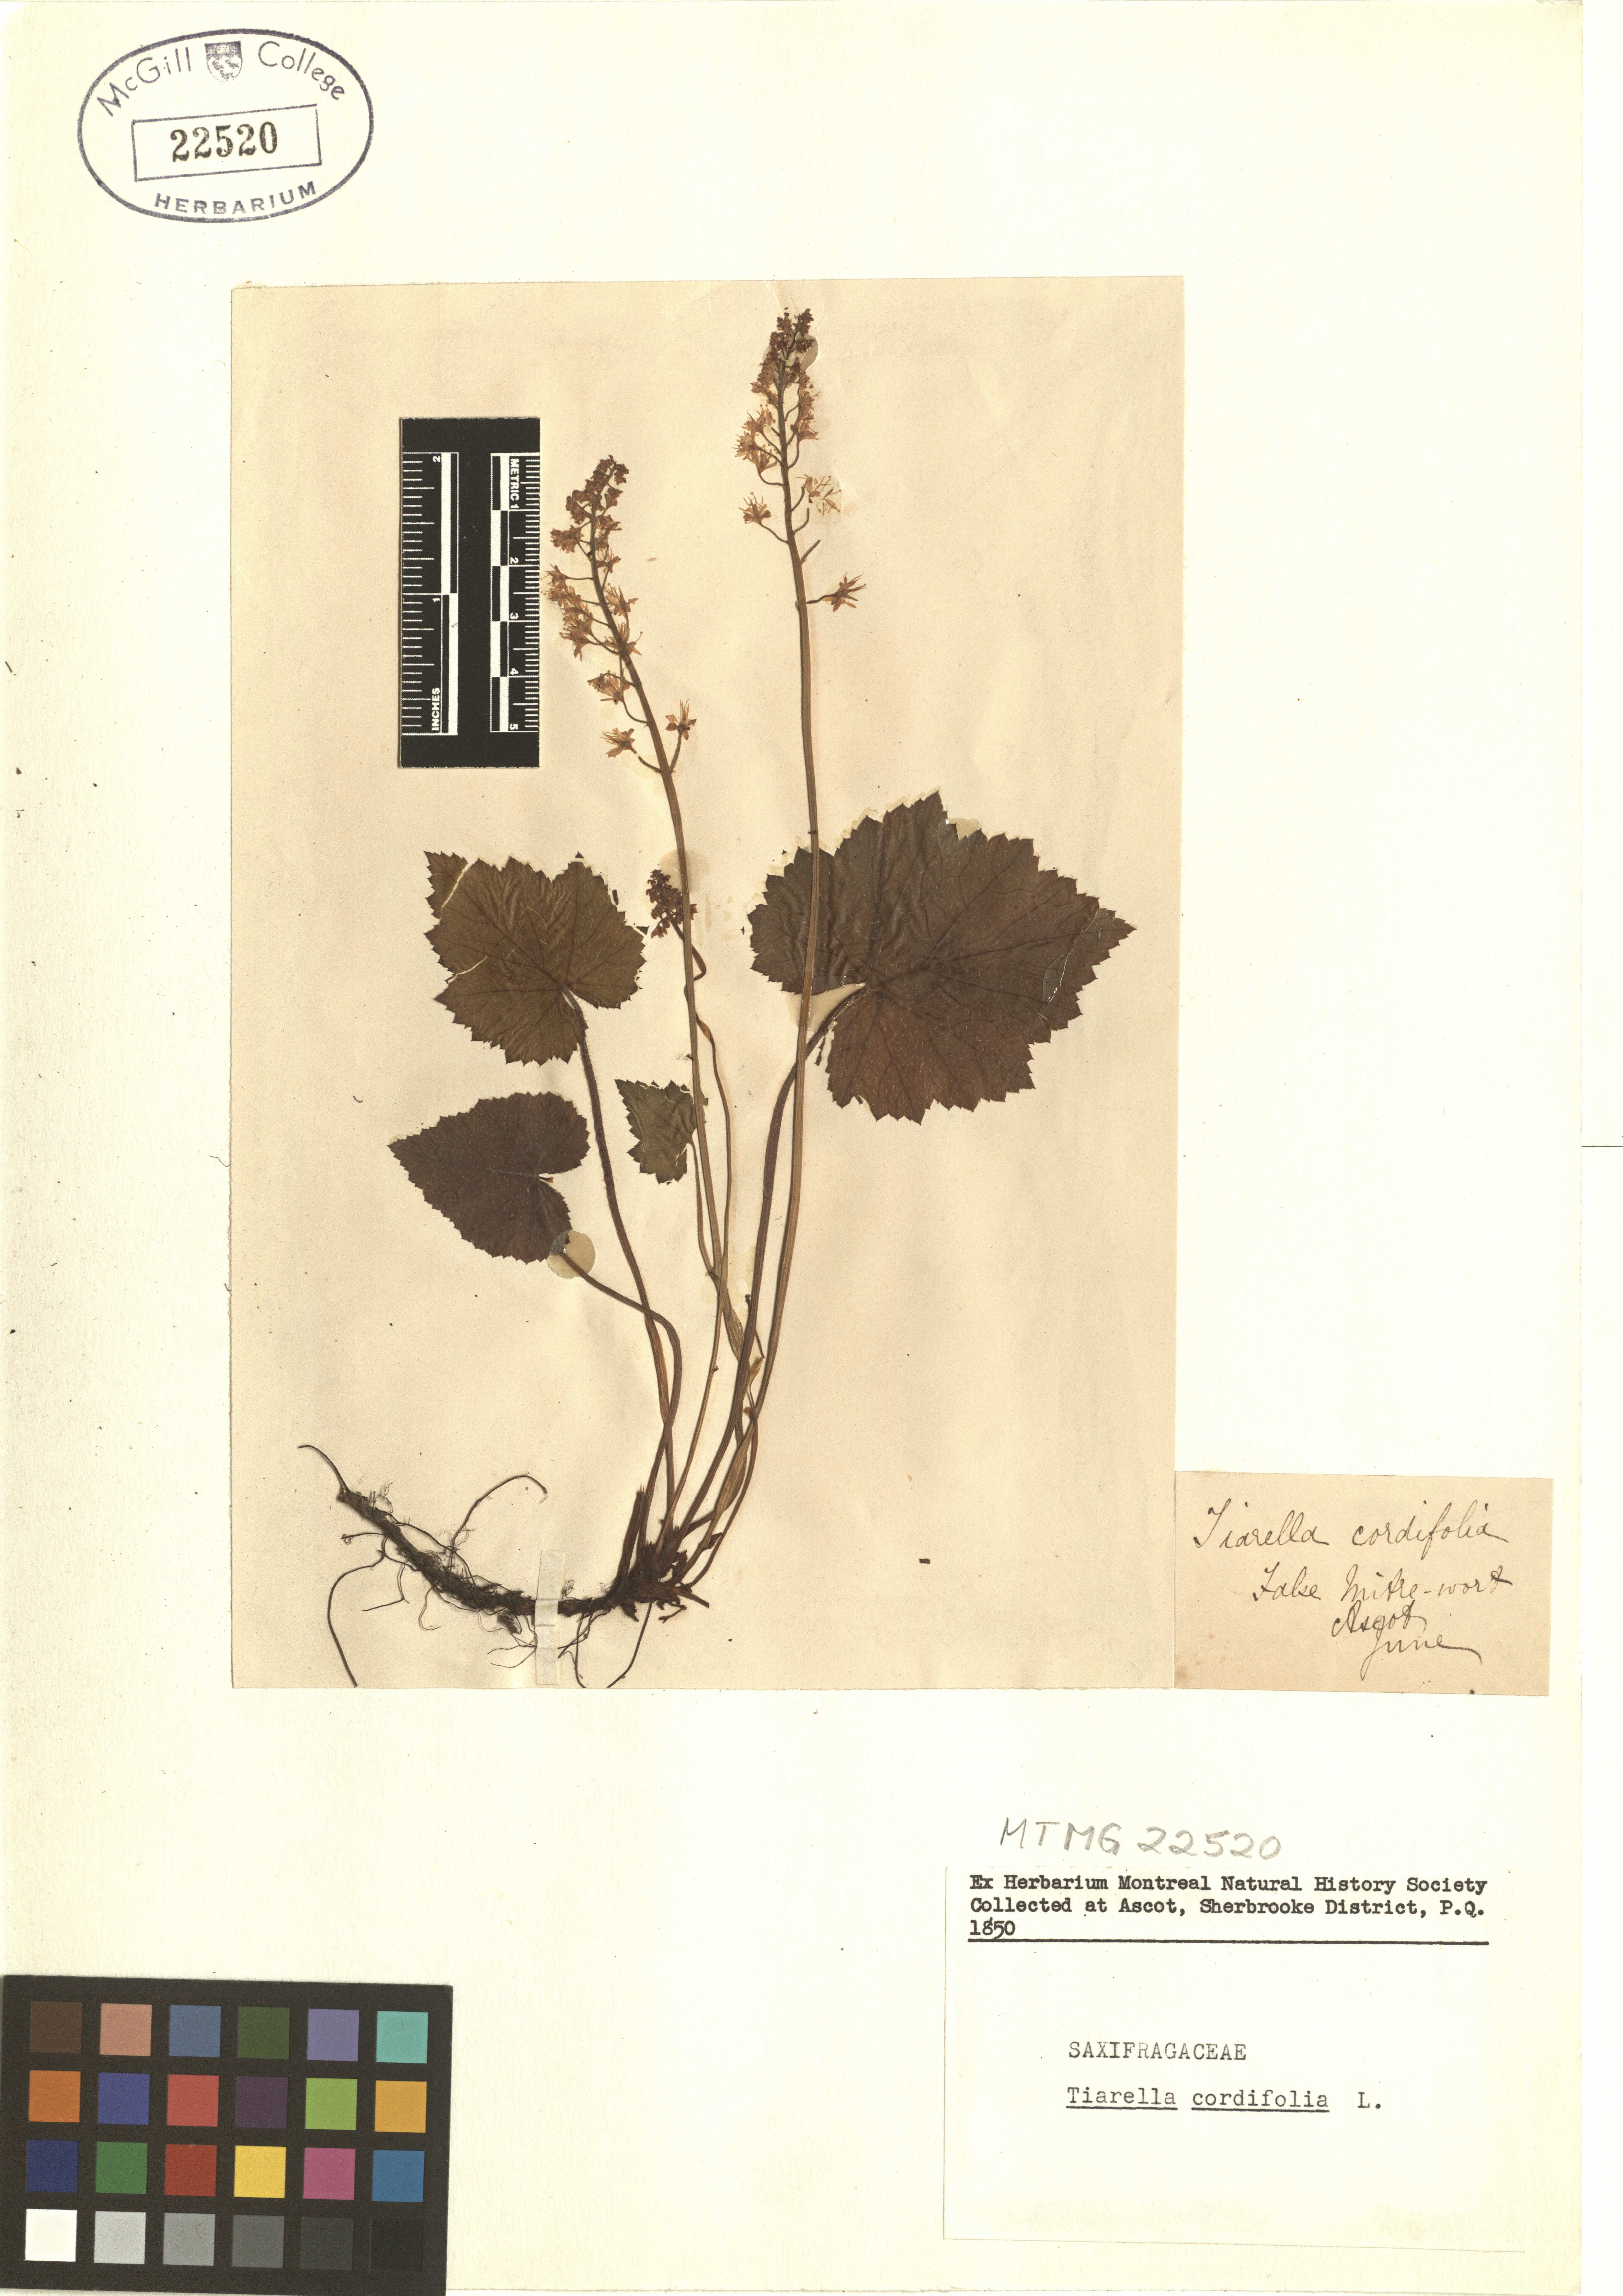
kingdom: Plantae
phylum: Tracheophyta
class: Magnoliopsida
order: Saxifragales
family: Saxifragaceae
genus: Tiarella
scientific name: Tiarella cordifolia
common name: Foamflower
